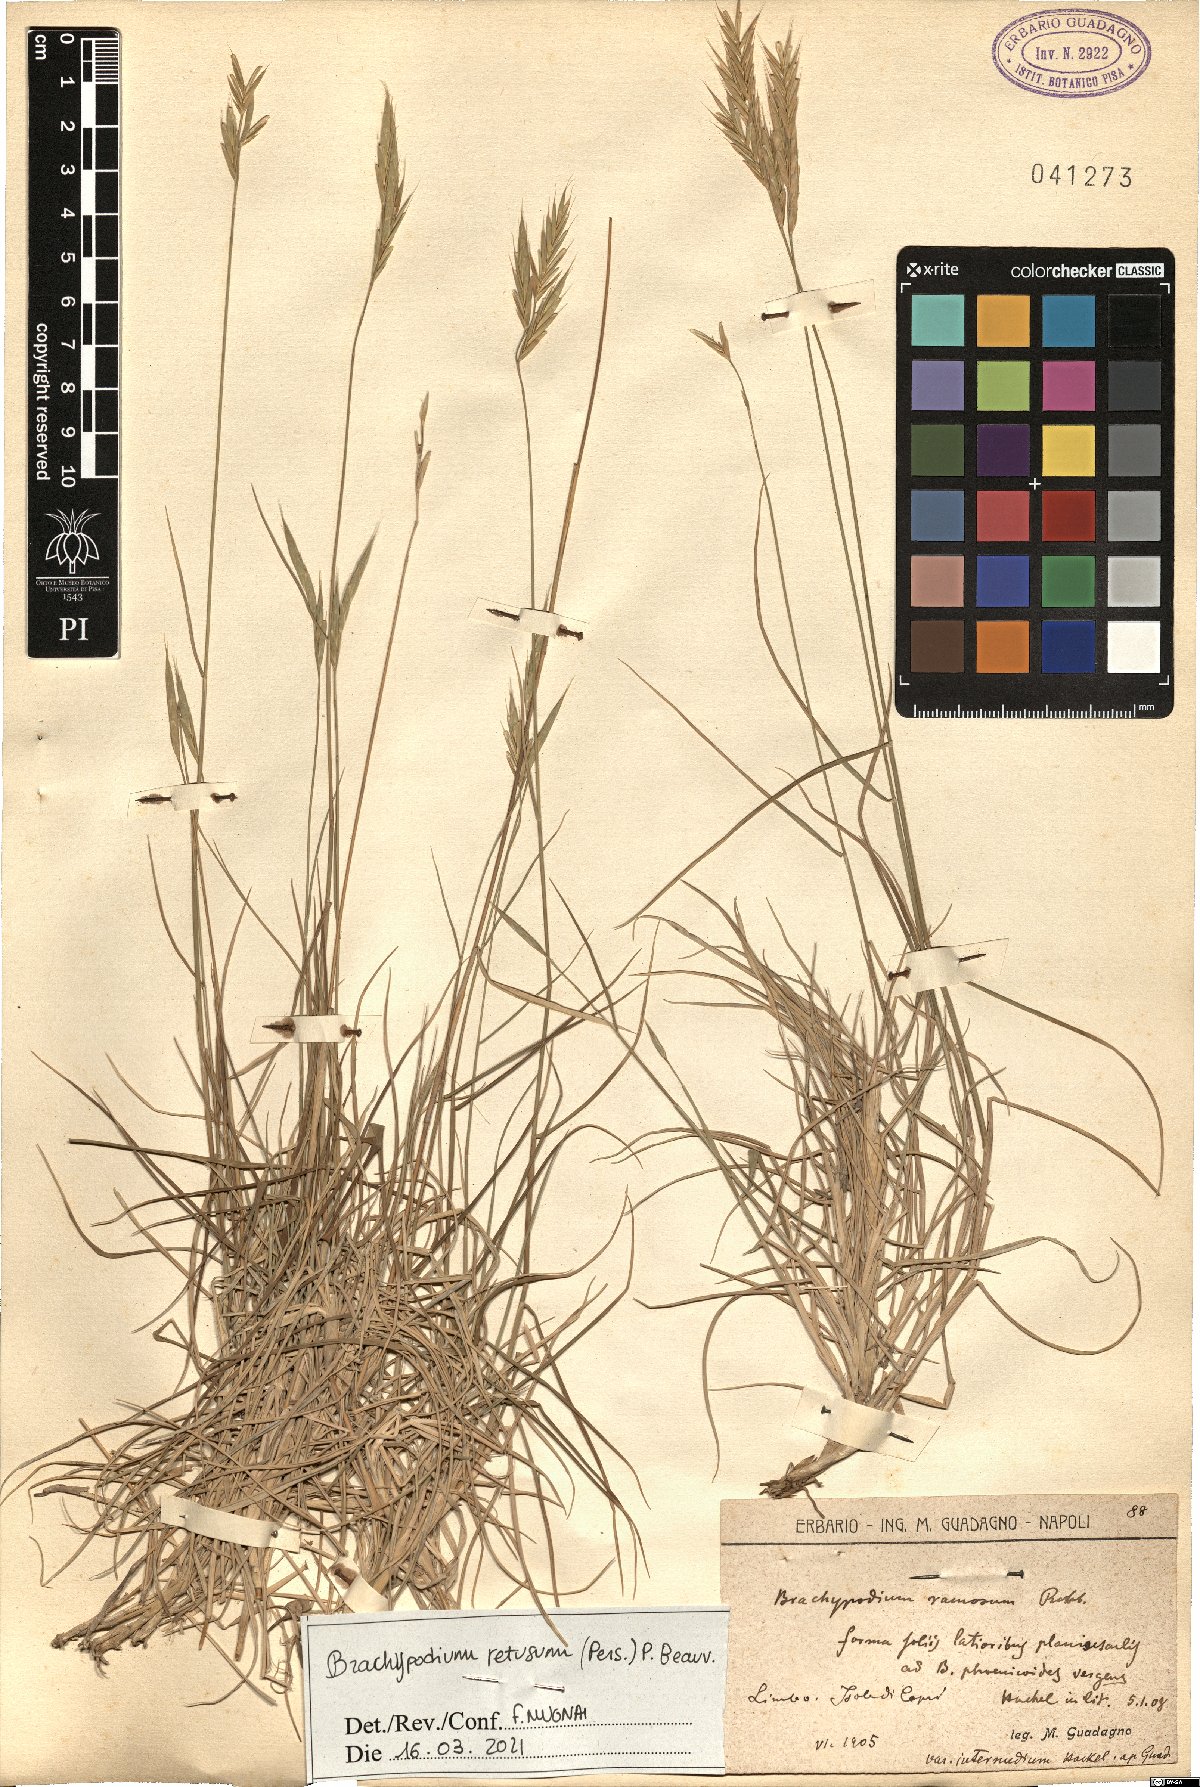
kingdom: Plantae
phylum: Tracheophyta
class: Liliopsida
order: Poales
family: Poaceae
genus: Brachypodium
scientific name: Brachypodium retusum
